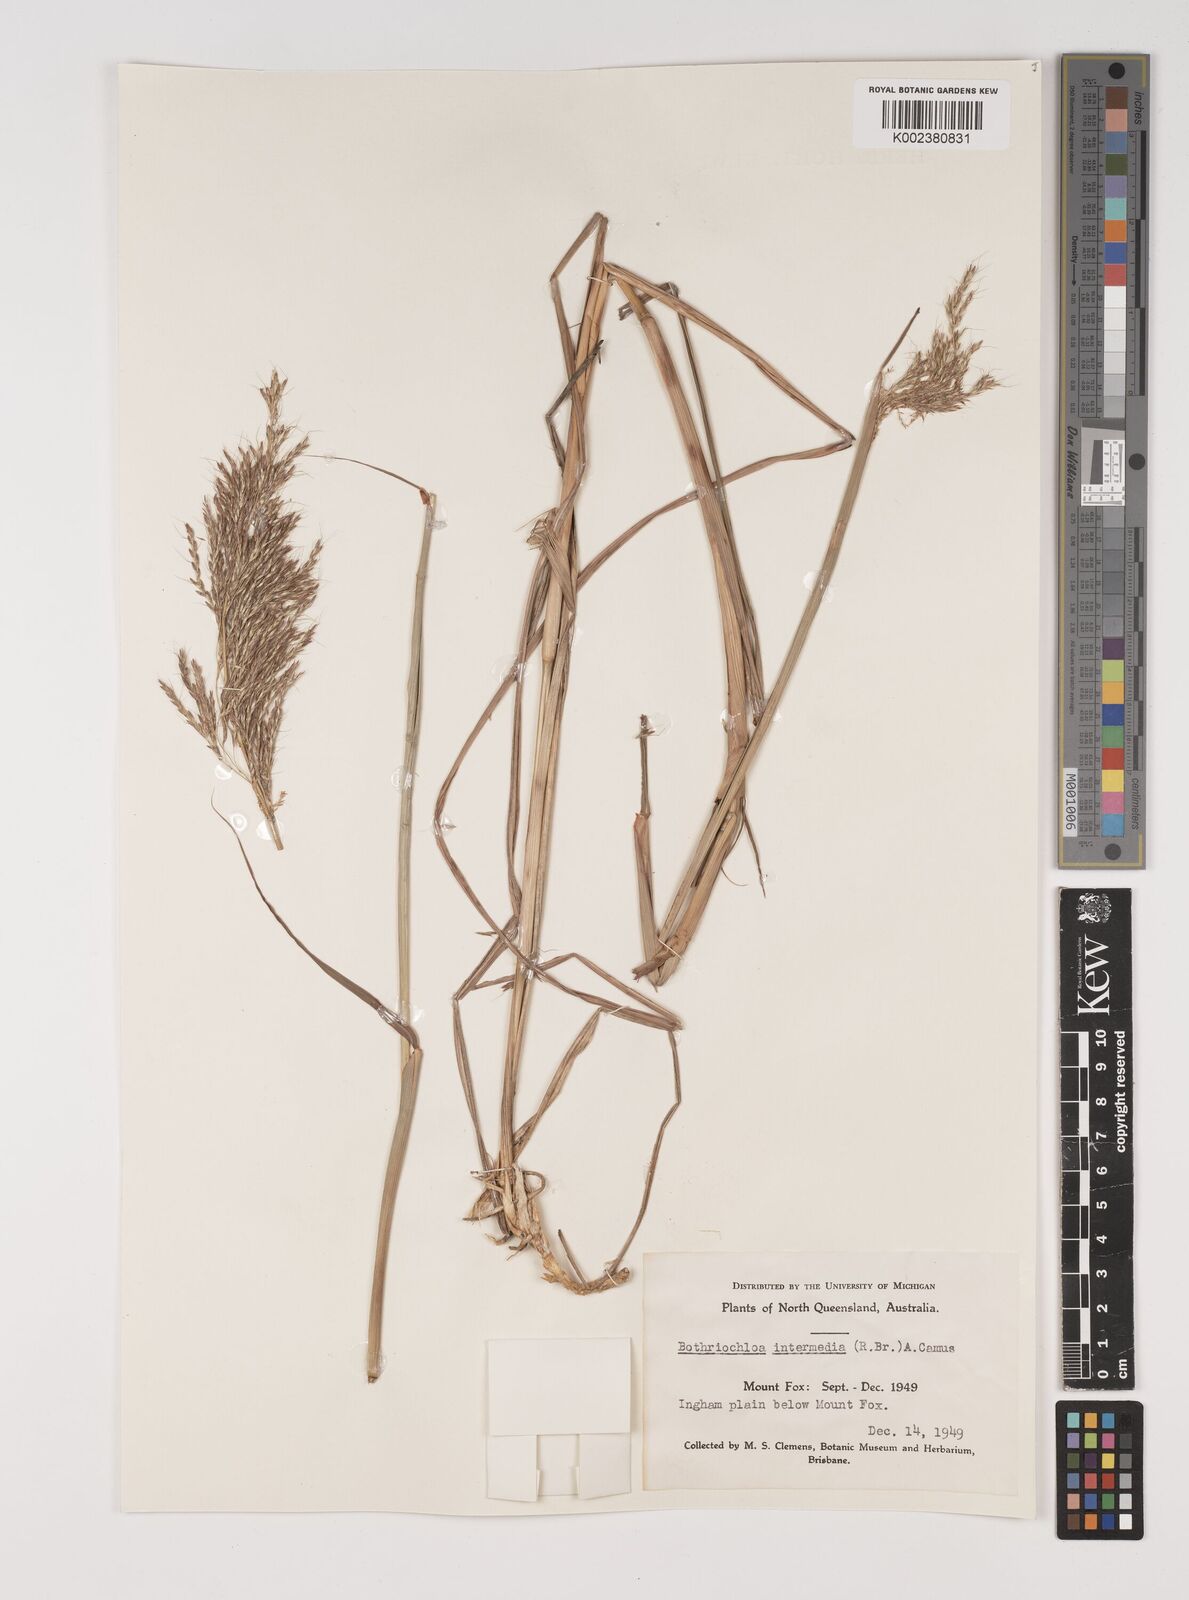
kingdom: Plantae
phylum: Tracheophyta
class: Liliopsida
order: Poales
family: Poaceae
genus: Bothriochloa
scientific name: Bothriochloa bladhii
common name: Caucasian bluestem
